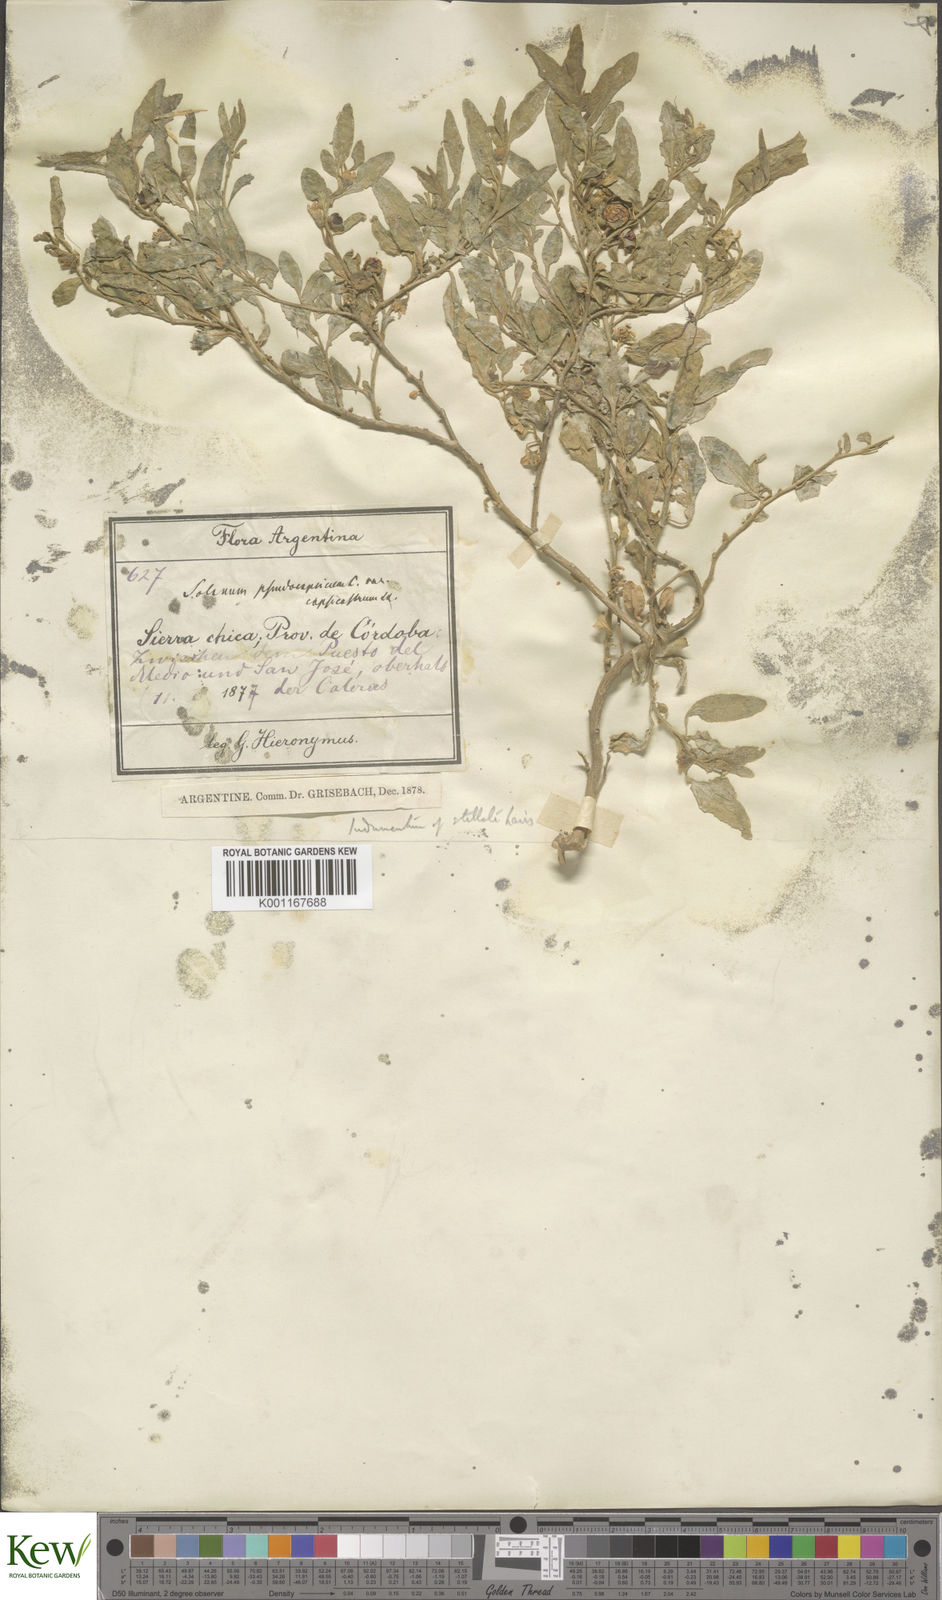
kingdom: Plantae
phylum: Tracheophyta
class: Magnoliopsida
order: Solanales
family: Solanaceae
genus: Solanum
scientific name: Solanum pseudocapsicum
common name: Jerusalem cherry
